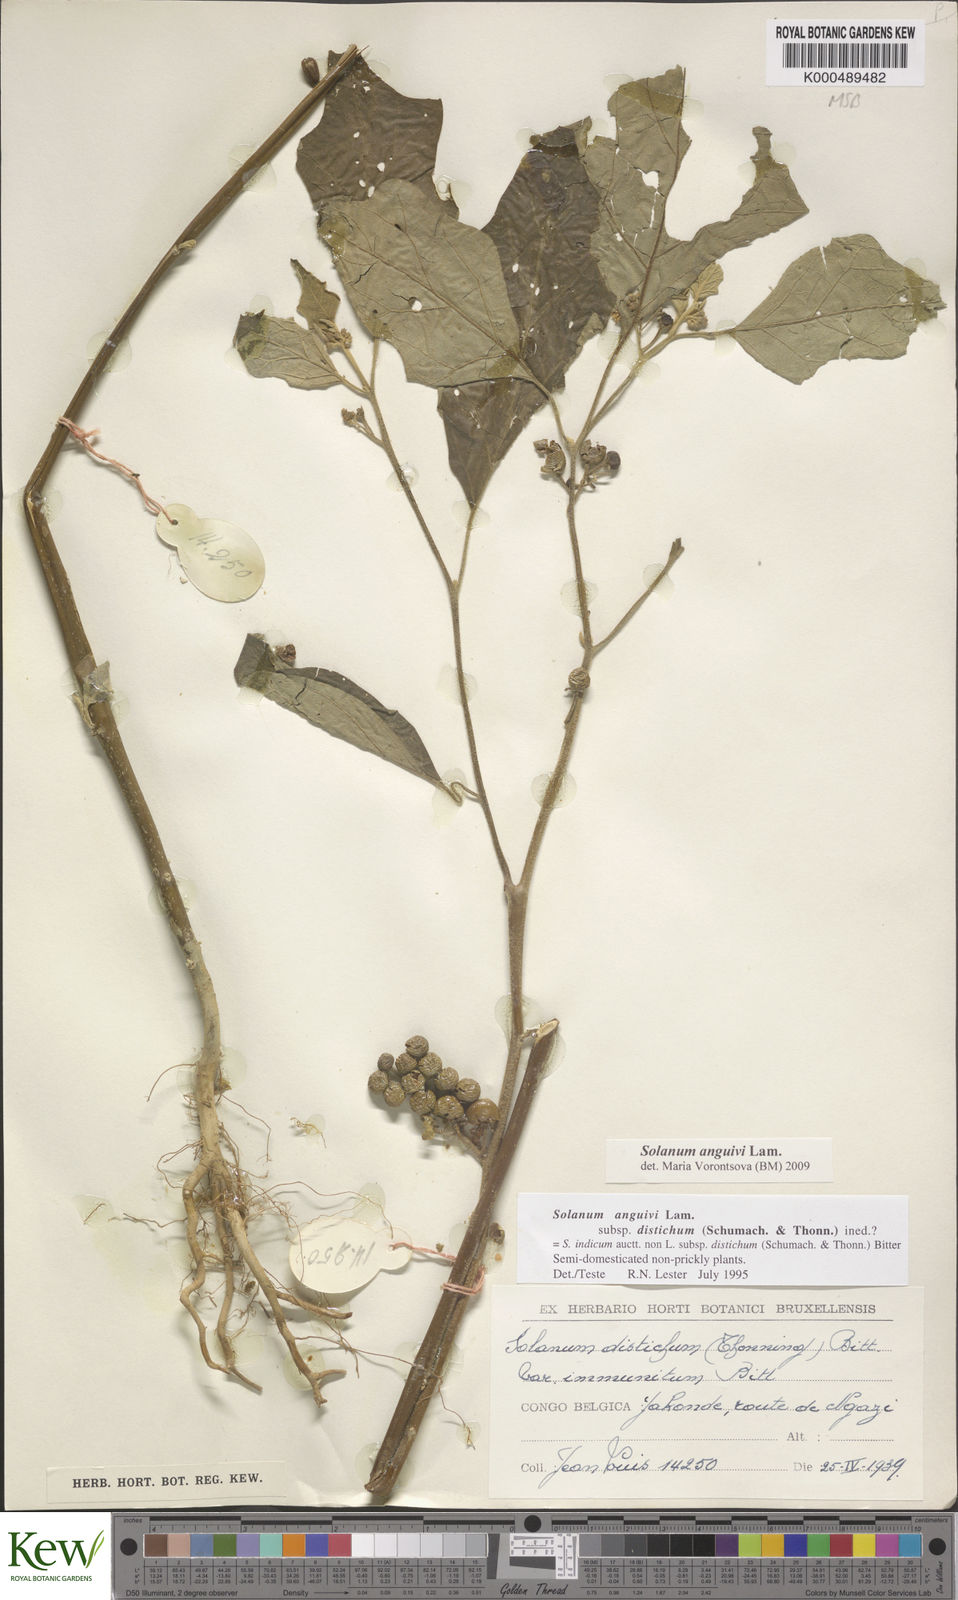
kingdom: Plantae
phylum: Tracheophyta
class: Magnoliopsida
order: Solanales
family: Solanaceae
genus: Solanum
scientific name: Solanum anguivi
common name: Forest bitterberry
